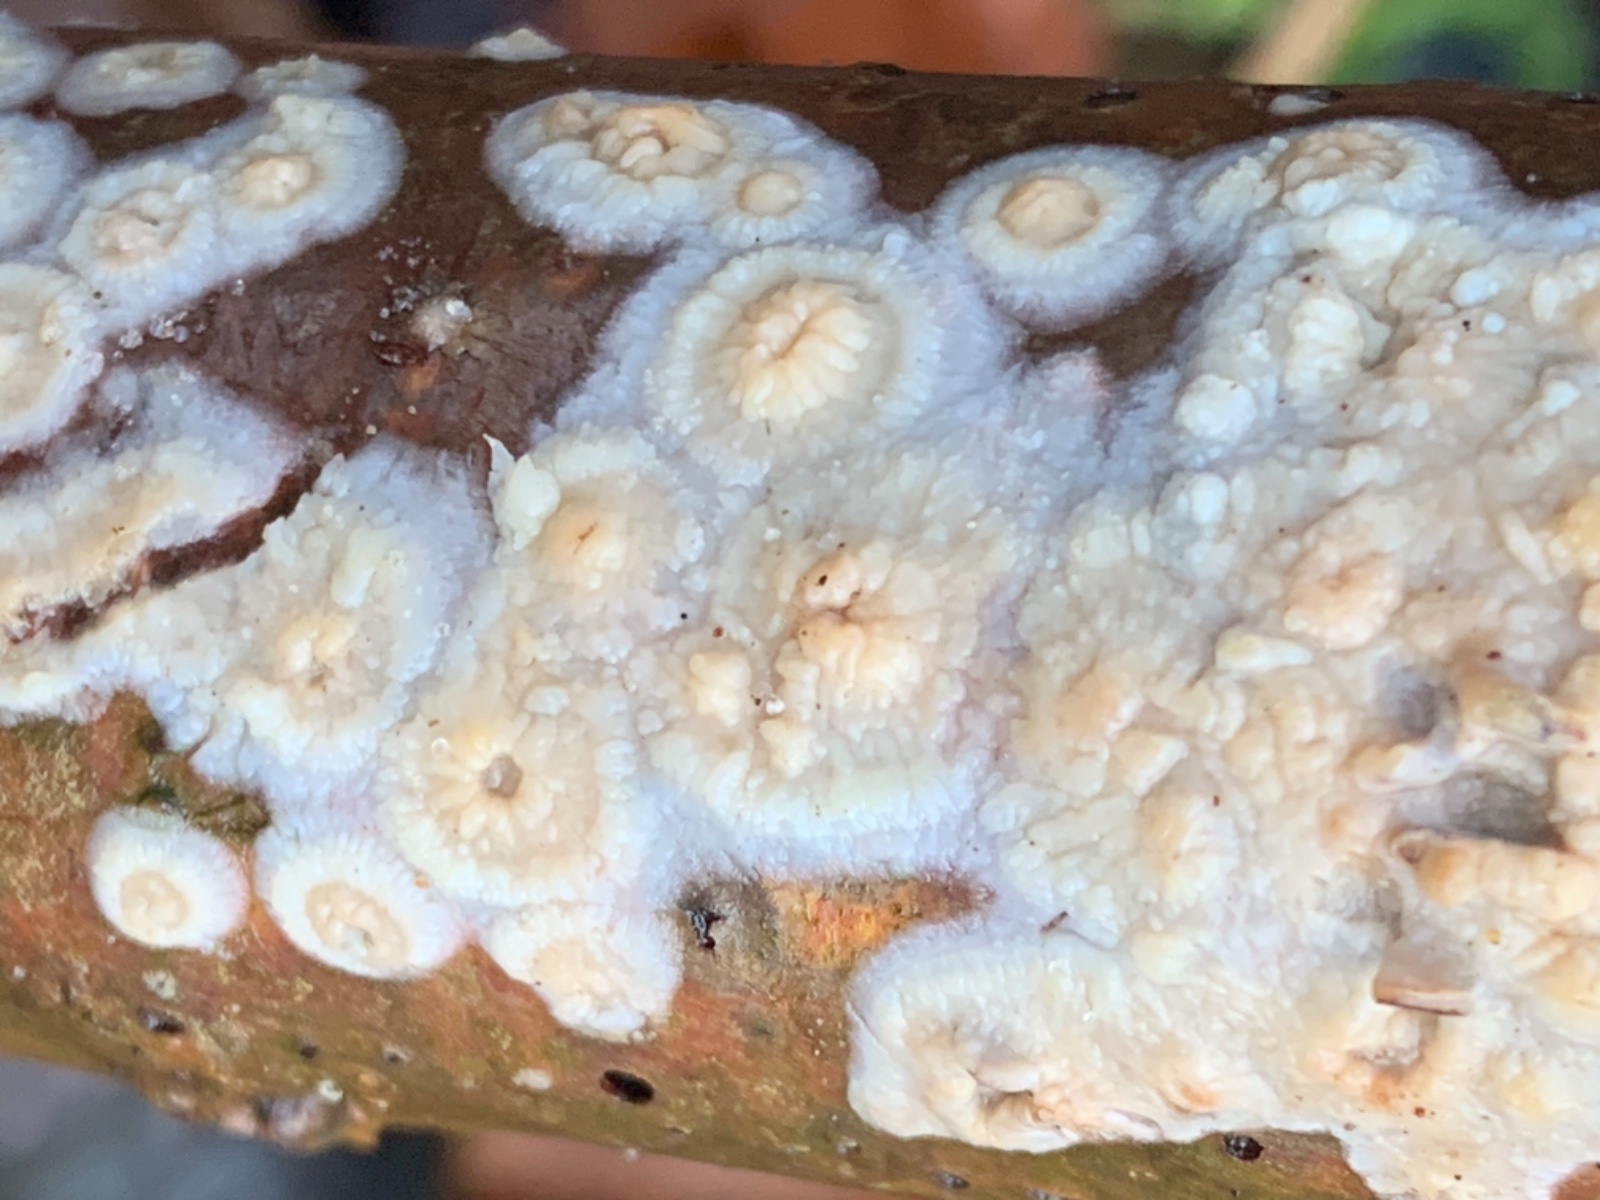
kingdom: Fungi
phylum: Basidiomycota
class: Agaricomycetes
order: Agaricales
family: Physalacriaceae
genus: Cylindrobasidium
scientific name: Cylindrobasidium evolvens
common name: sprækkehinde
